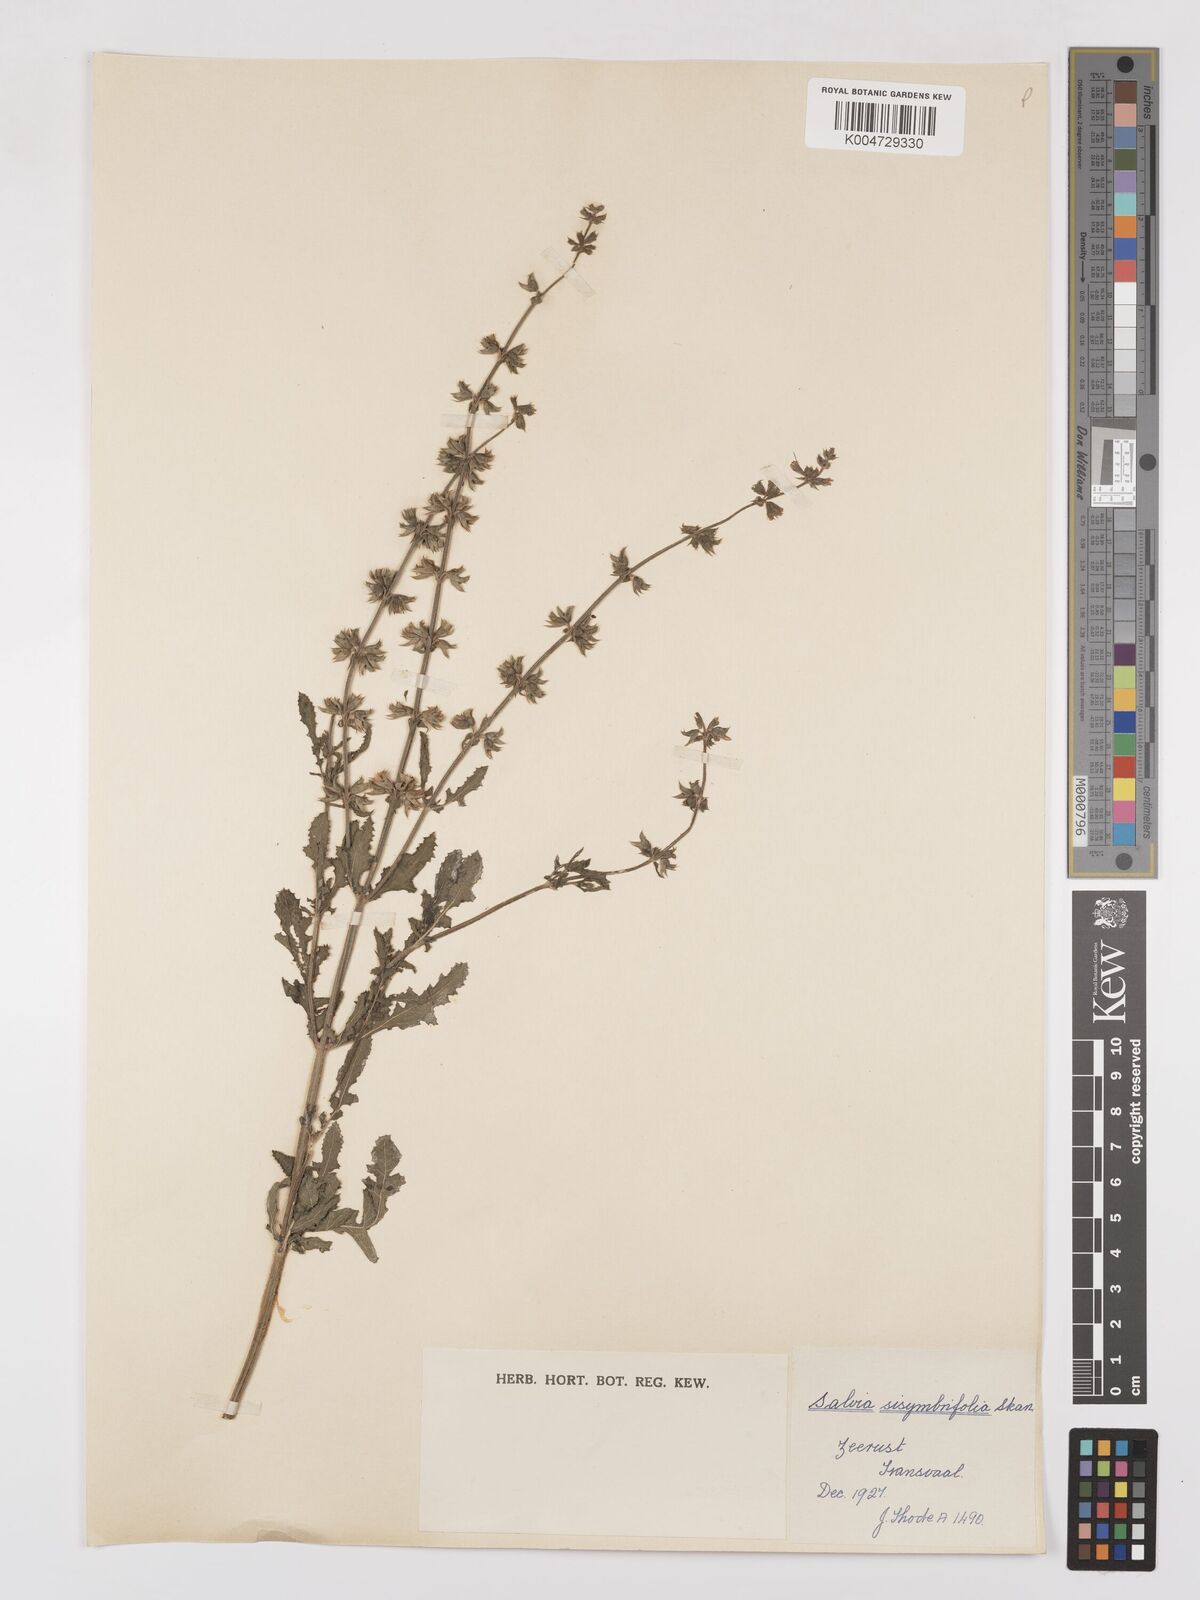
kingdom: Plantae
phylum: Tracheophyta
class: Magnoliopsida
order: Lamiales
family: Lamiaceae
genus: Salvia
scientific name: Salvia runcinata
